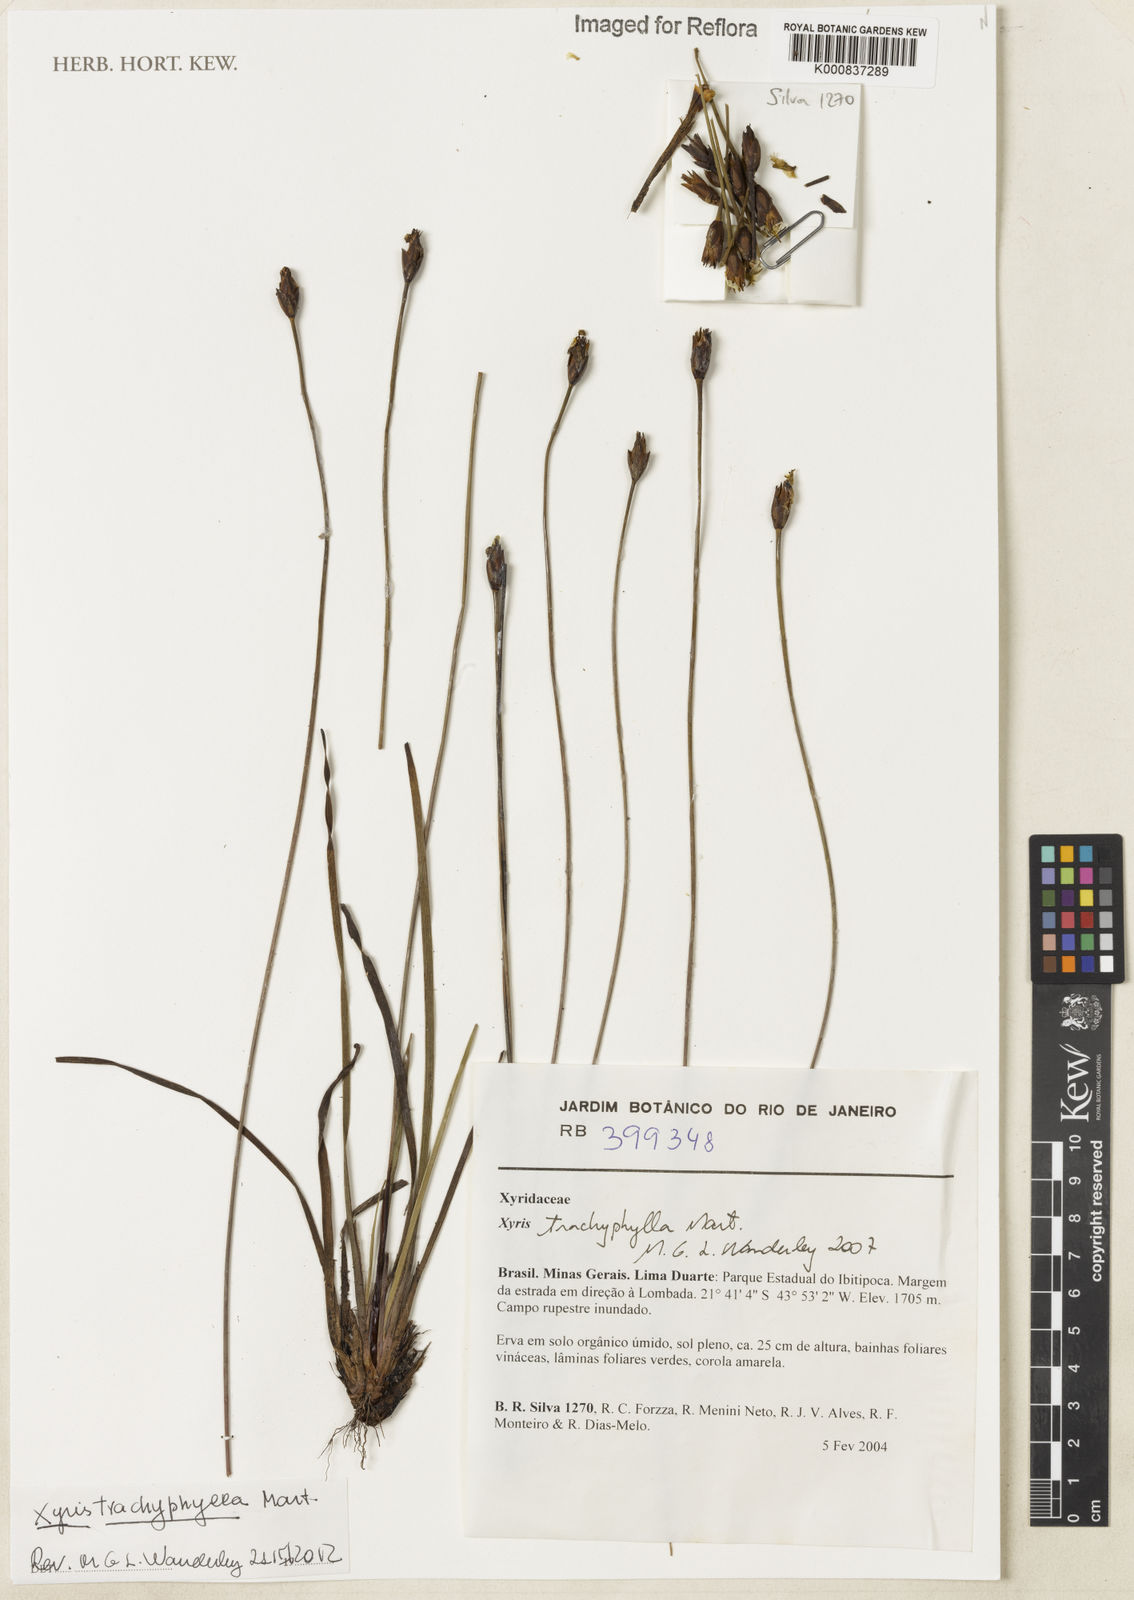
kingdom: Plantae
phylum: Tracheophyta
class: Liliopsida
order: Poales
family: Xyridaceae
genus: Xyris
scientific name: Xyris trachyphylla
